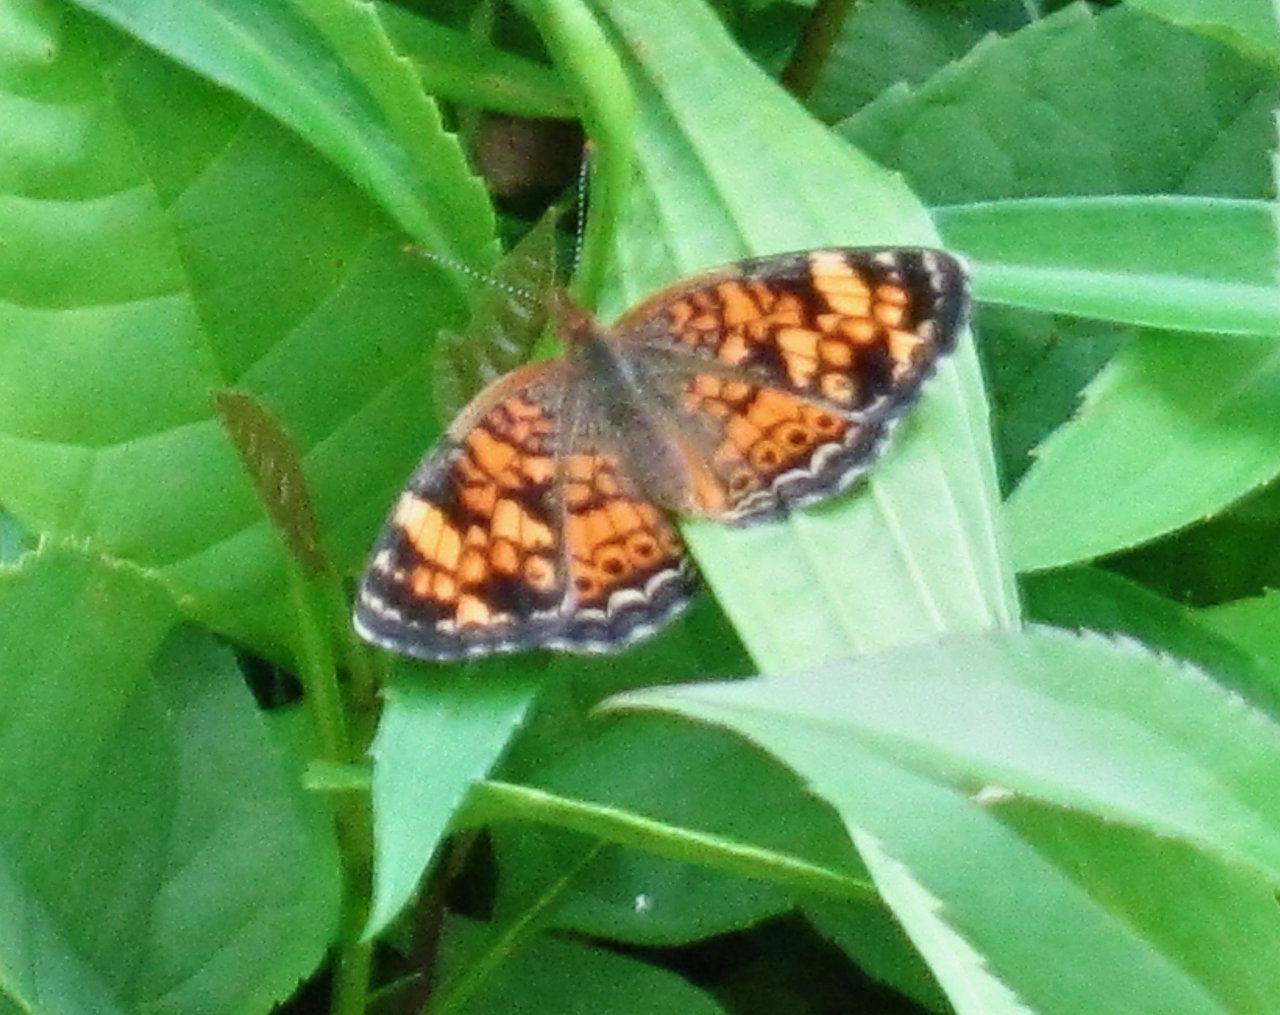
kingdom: Animalia
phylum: Arthropoda
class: Insecta
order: Lepidoptera
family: Nymphalidae
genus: Phyciodes
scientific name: Phyciodes tharos
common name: Pearl Crescent
